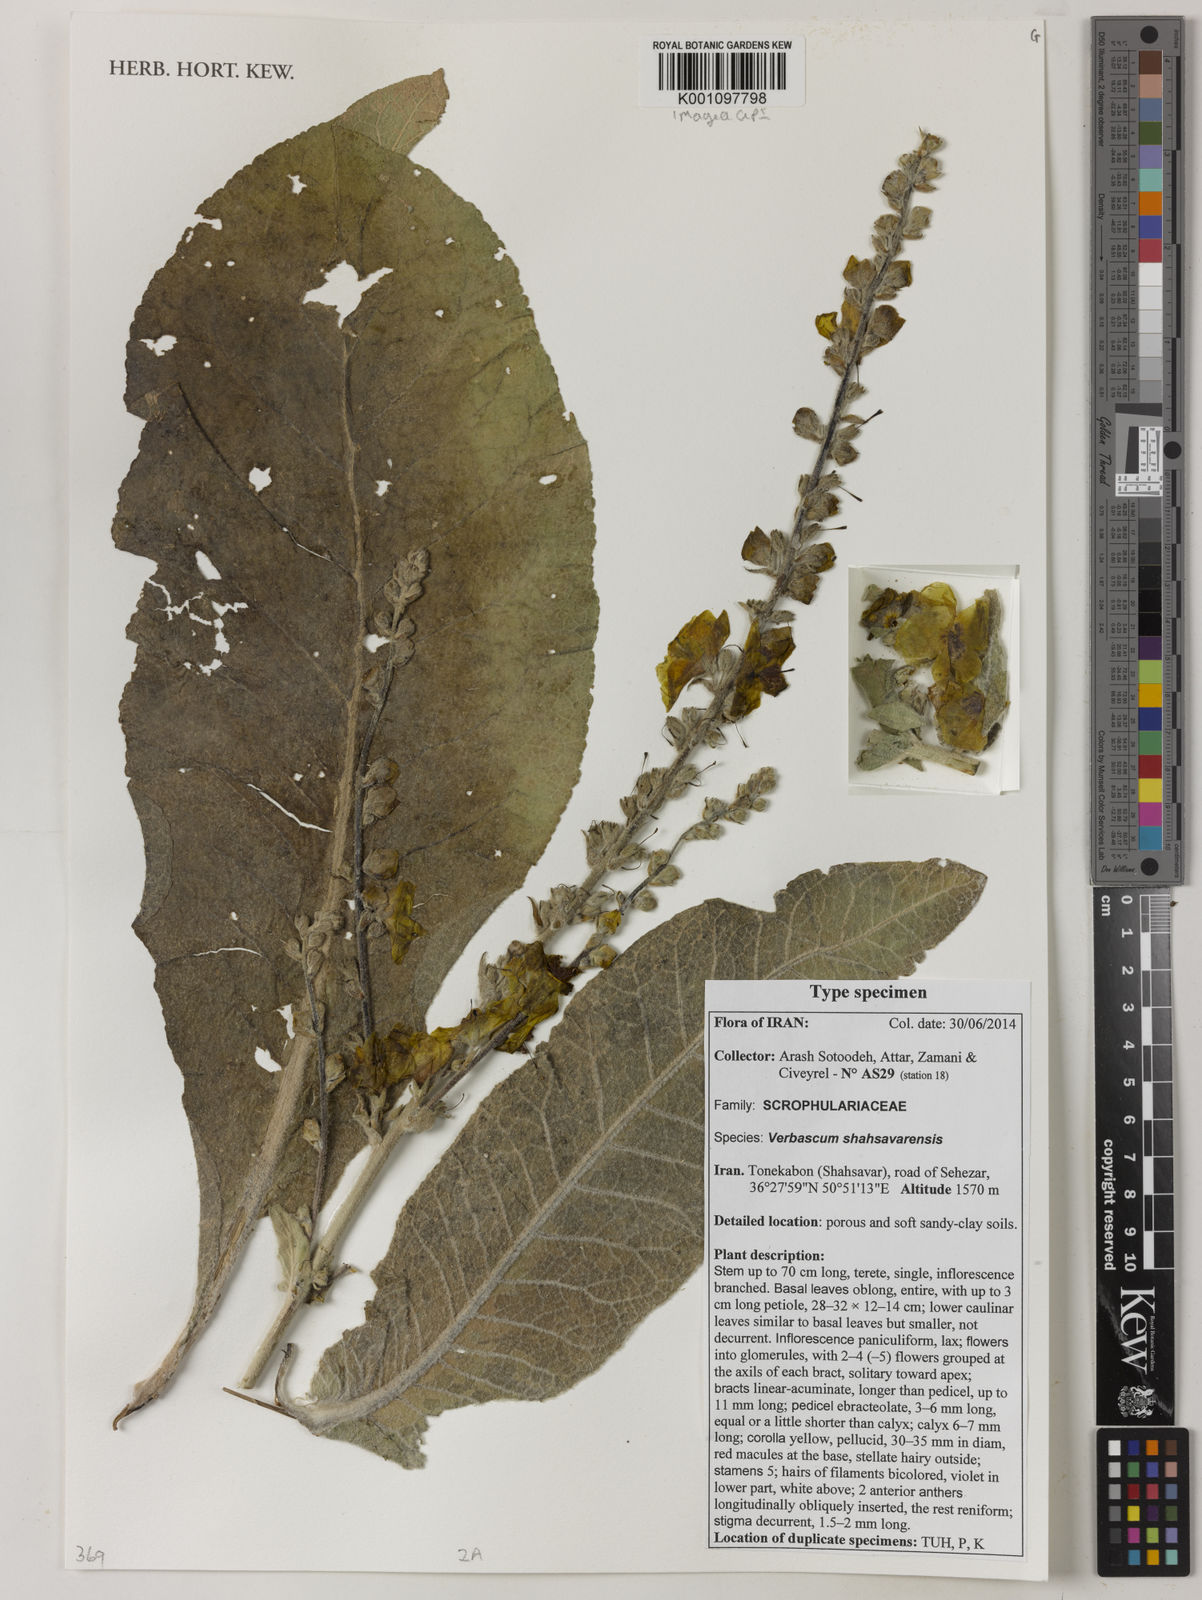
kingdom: Plantae
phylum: Tracheophyta
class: Magnoliopsida
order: Lamiales
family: Scrophulariaceae
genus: Verbascum
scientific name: Verbascum shahsavarensis
